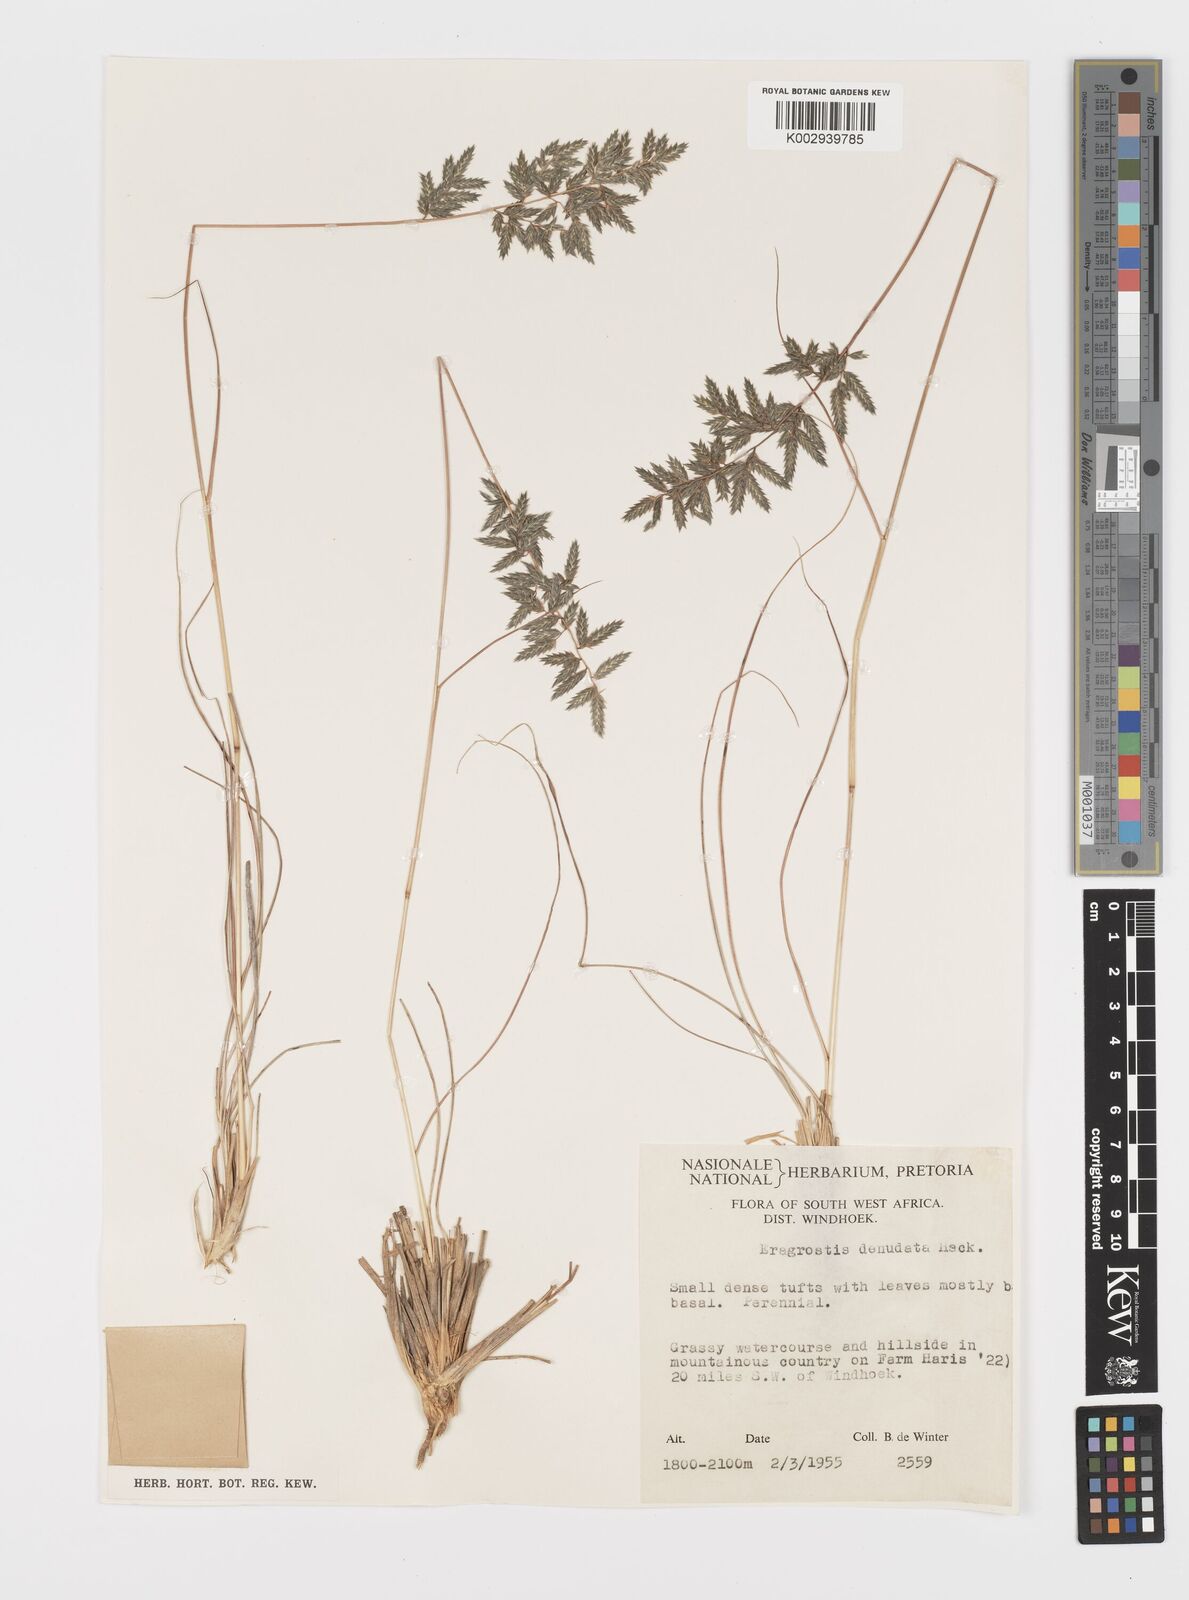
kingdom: Plantae
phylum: Tracheophyta
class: Liliopsida
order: Poales
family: Poaceae
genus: Eragrostis
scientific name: Eragrostis nindensis
